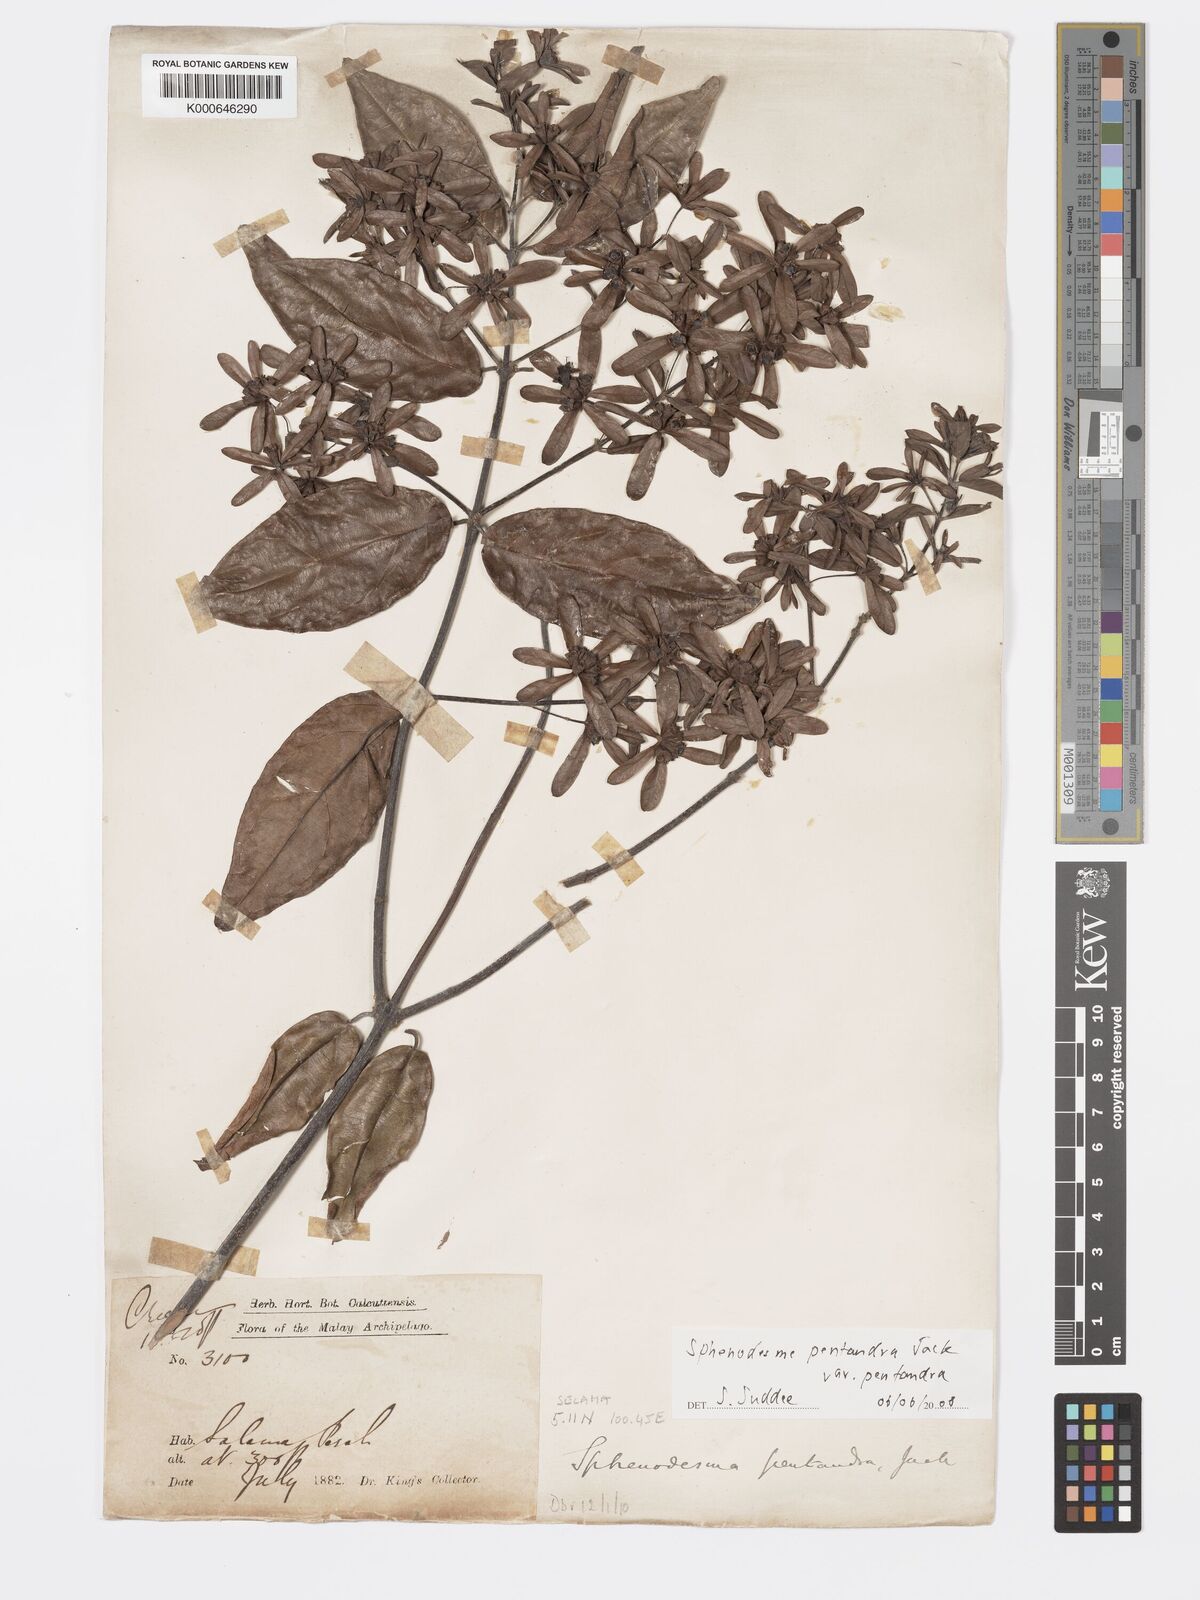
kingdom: Plantae
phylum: Tracheophyta
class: Magnoliopsida
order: Lamiales
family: Lamiaceae
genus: Sphenodesme
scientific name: Sphenodesme pentandra
